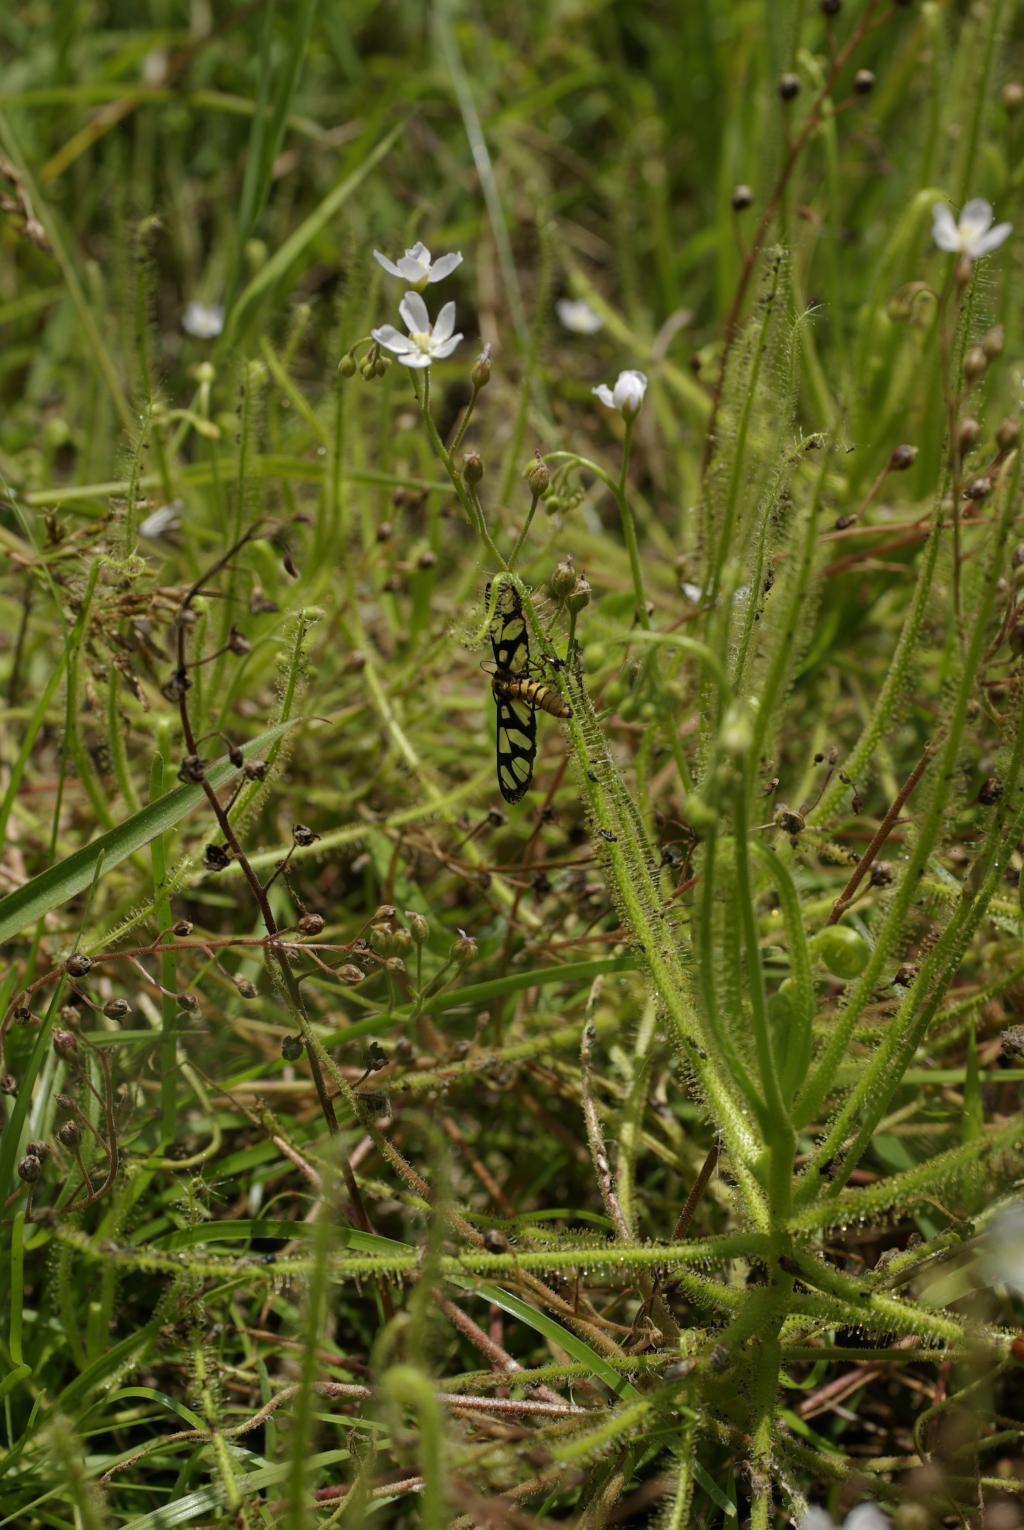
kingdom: Plantae
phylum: Tracheophyta
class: Magnoliopsida
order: Caryophyllales
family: Droseraceae
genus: Drosera
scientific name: Drosera indica
